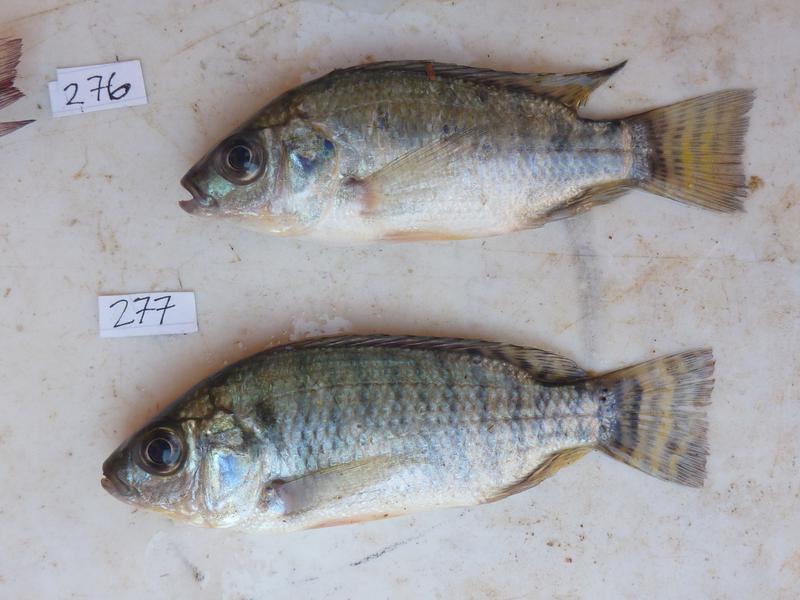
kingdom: Animalia
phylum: Chordata
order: Perciformes
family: Cichlidae
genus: Oreochromis
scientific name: Oreochromis niloticus
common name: Nile tilapia
